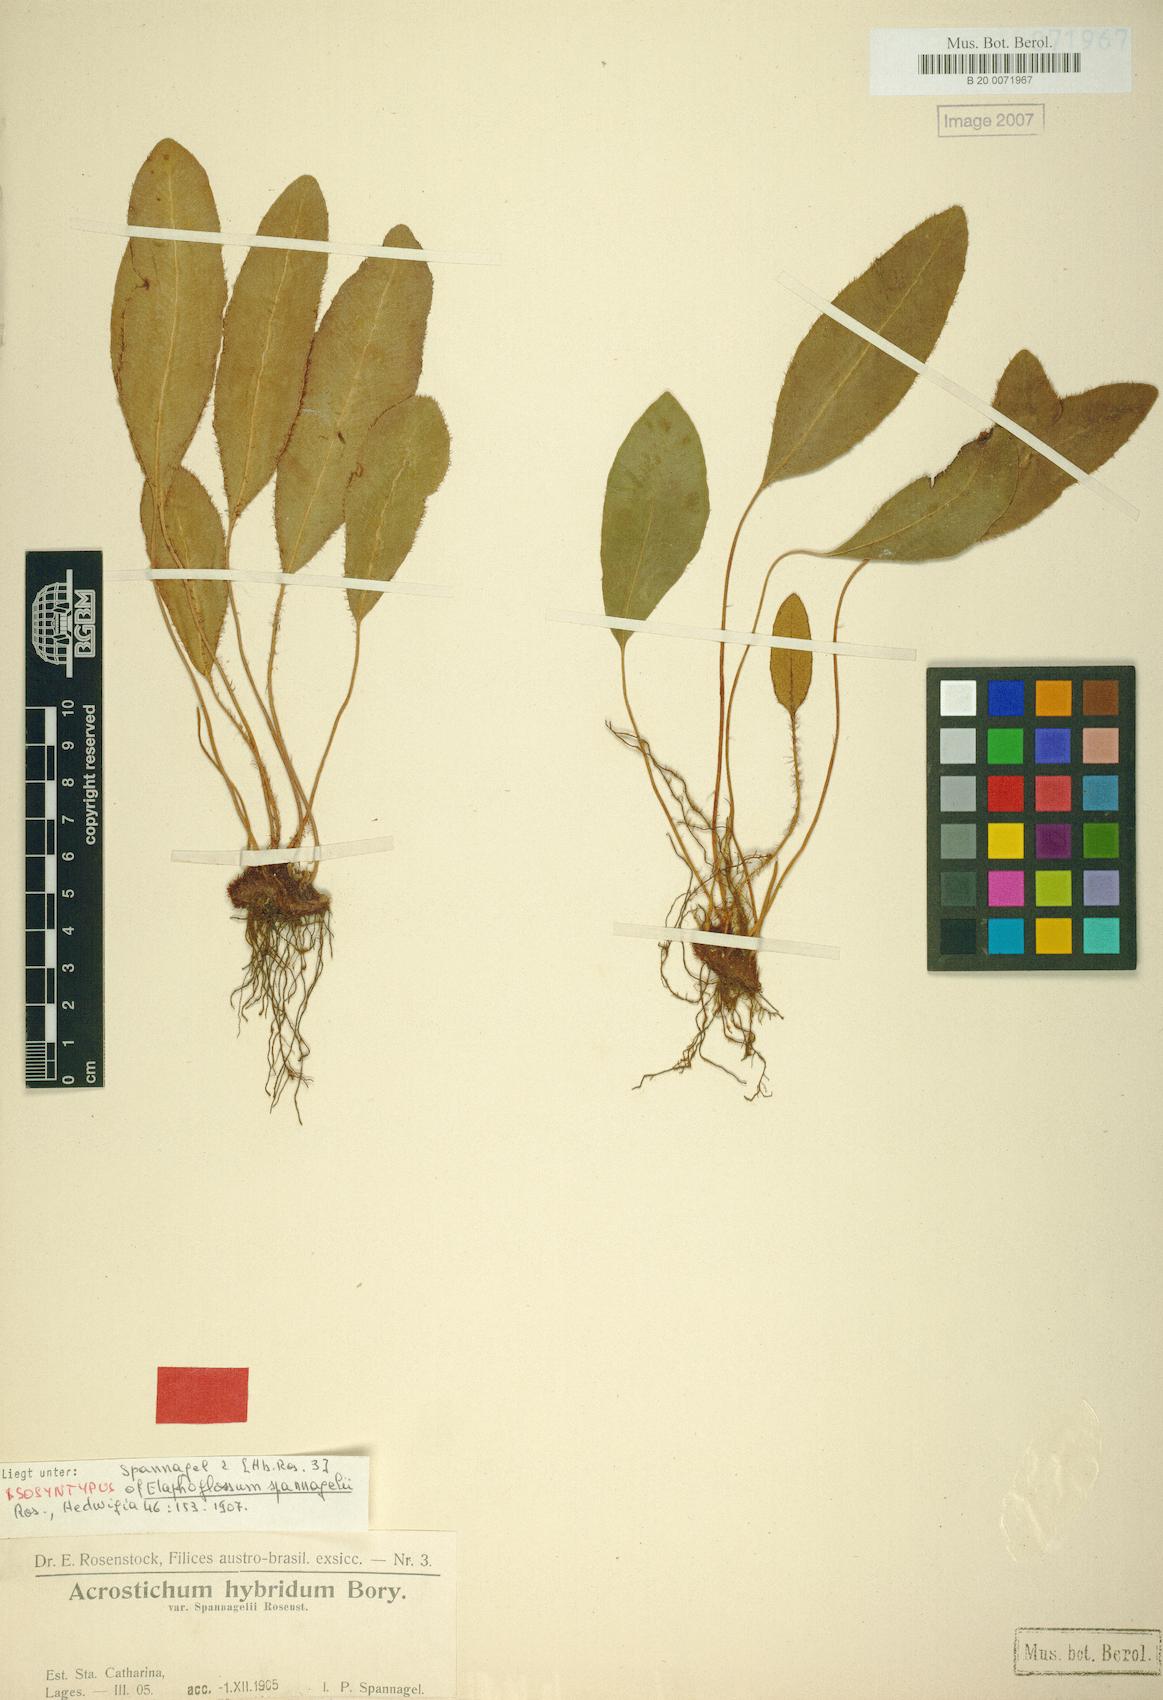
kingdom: Plantae
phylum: Tracheophyta
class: Polypodiopsida
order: Polypodiales
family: Dryopteridaceae
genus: Elaphoglossum
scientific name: Elaphoglossum ulei
